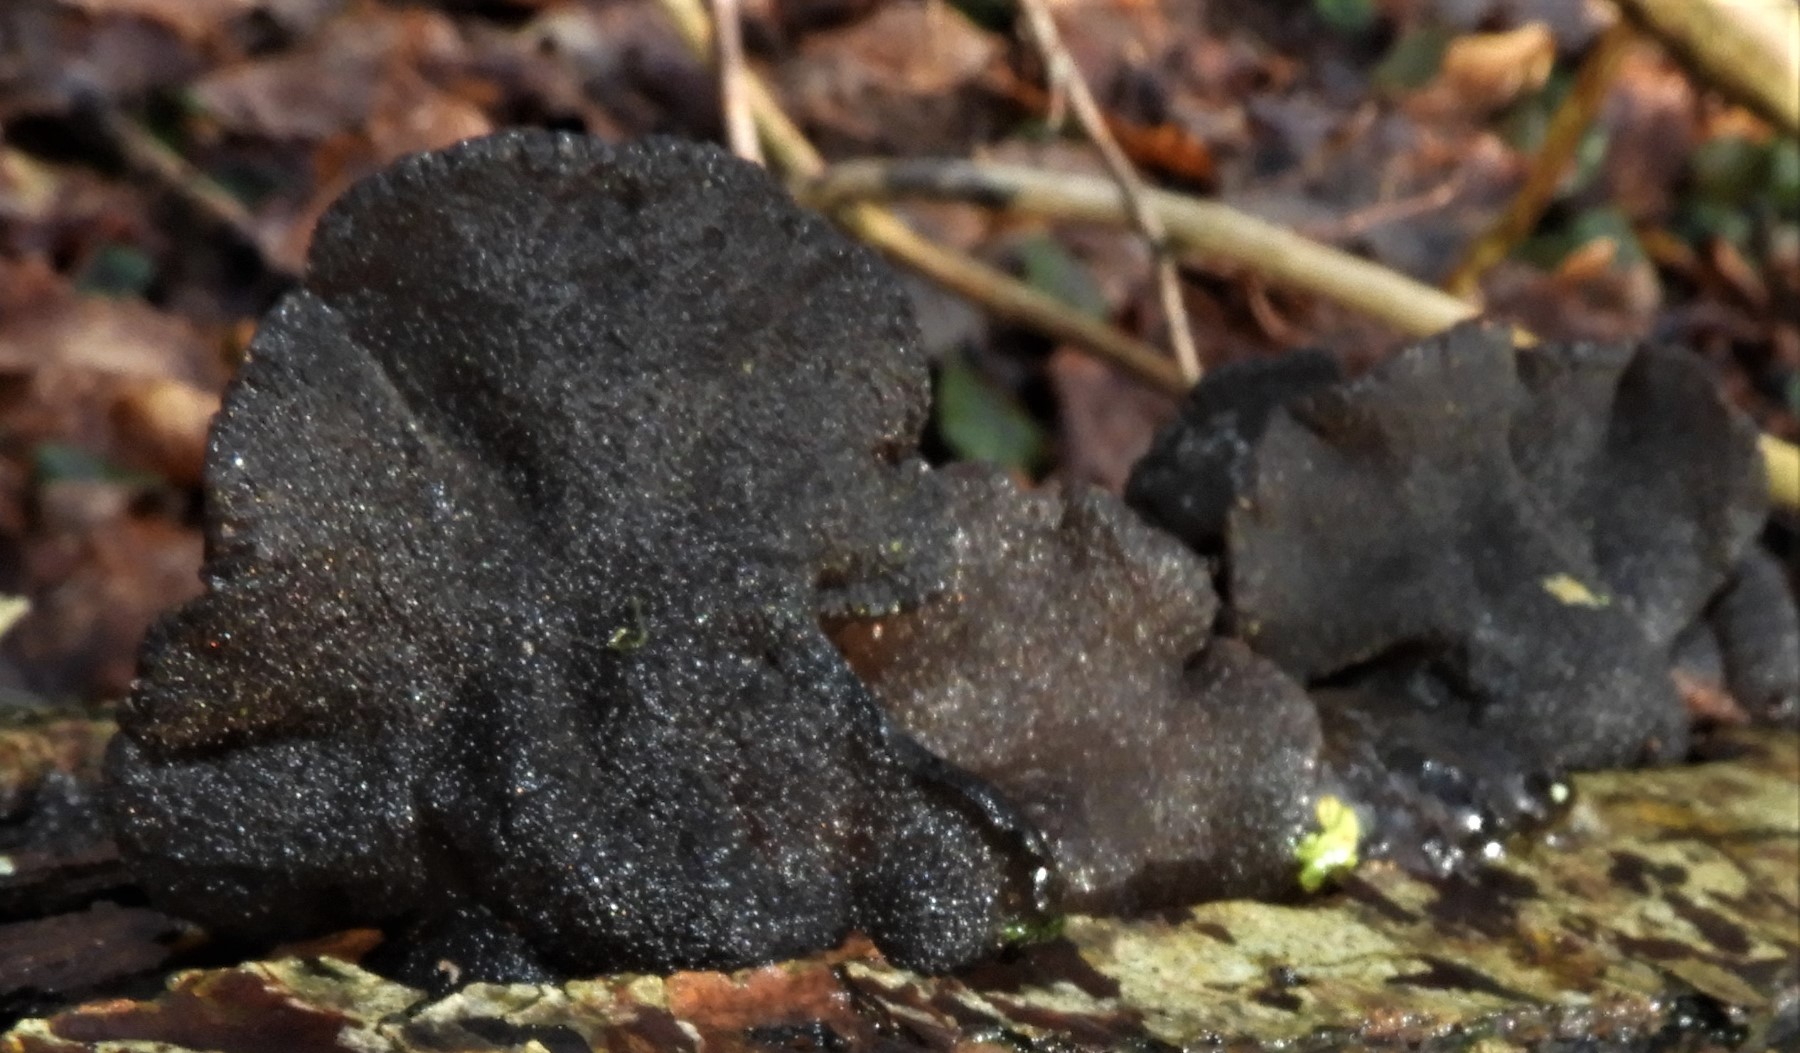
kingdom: Fungi
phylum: Basidiomycota
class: Agaricomycetes
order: Auriculariales
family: Auriculariaceae
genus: Exidia
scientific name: Exidia glandulosa
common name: ege-bævretop
